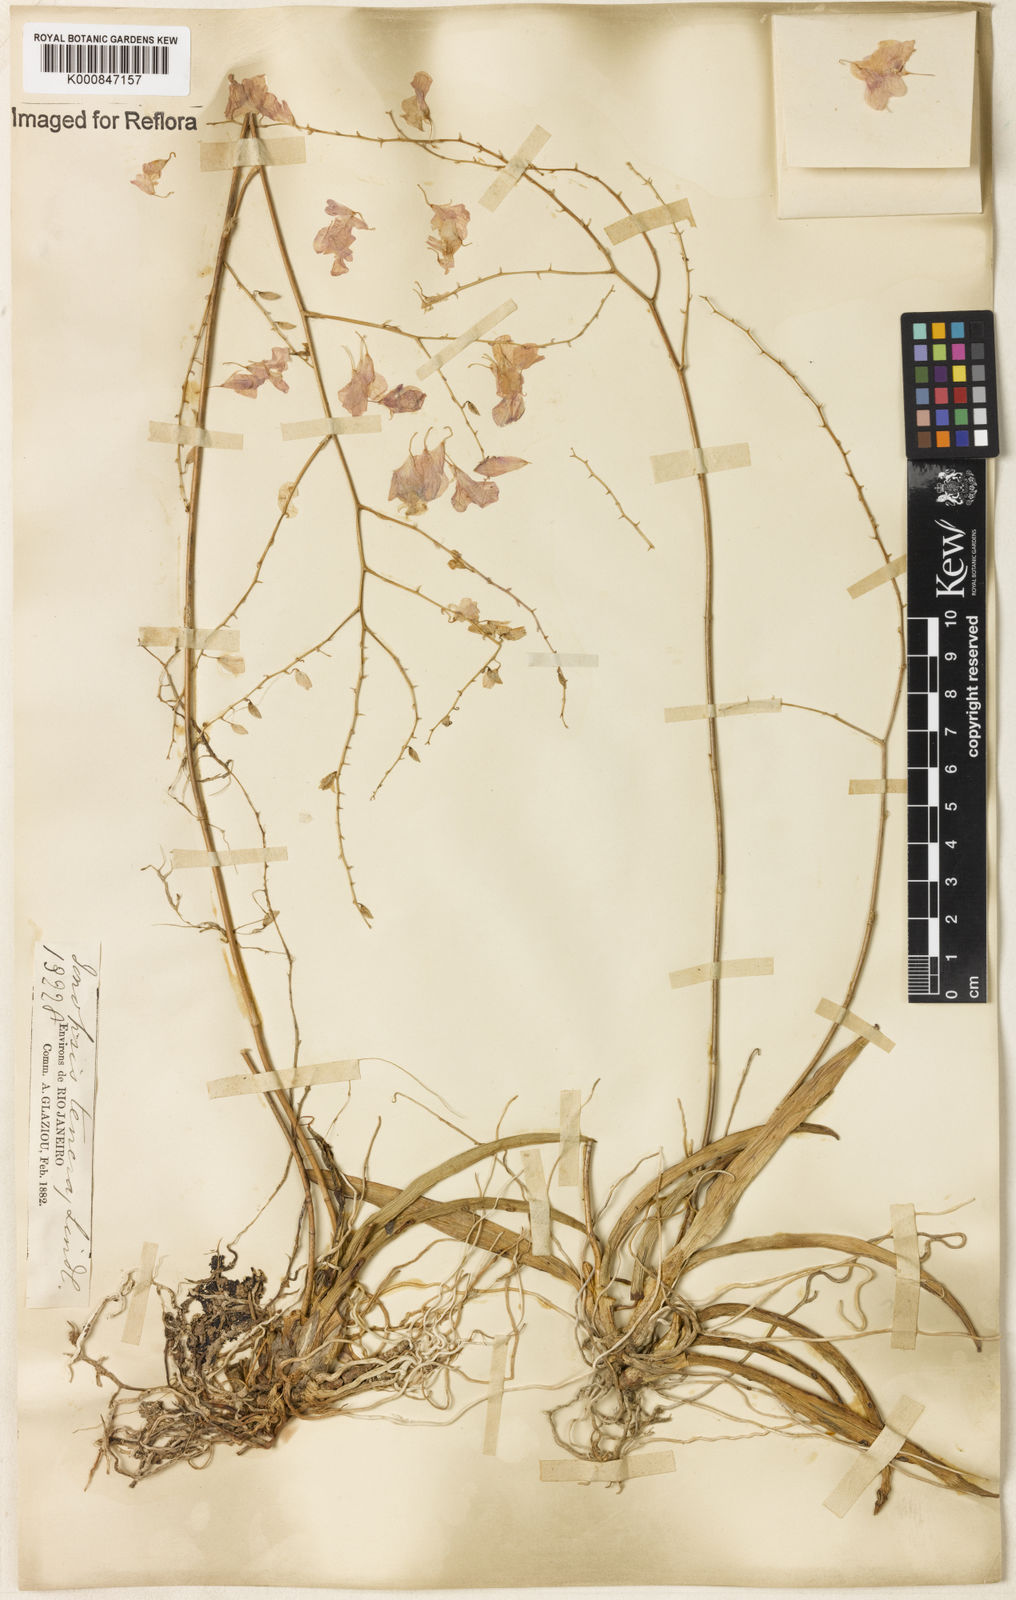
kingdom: Plantae
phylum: Tracheophyta
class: Liliopsida
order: Asparagales
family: Orchidaceae
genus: Ionopsis
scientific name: Ionopsis utricularioides
